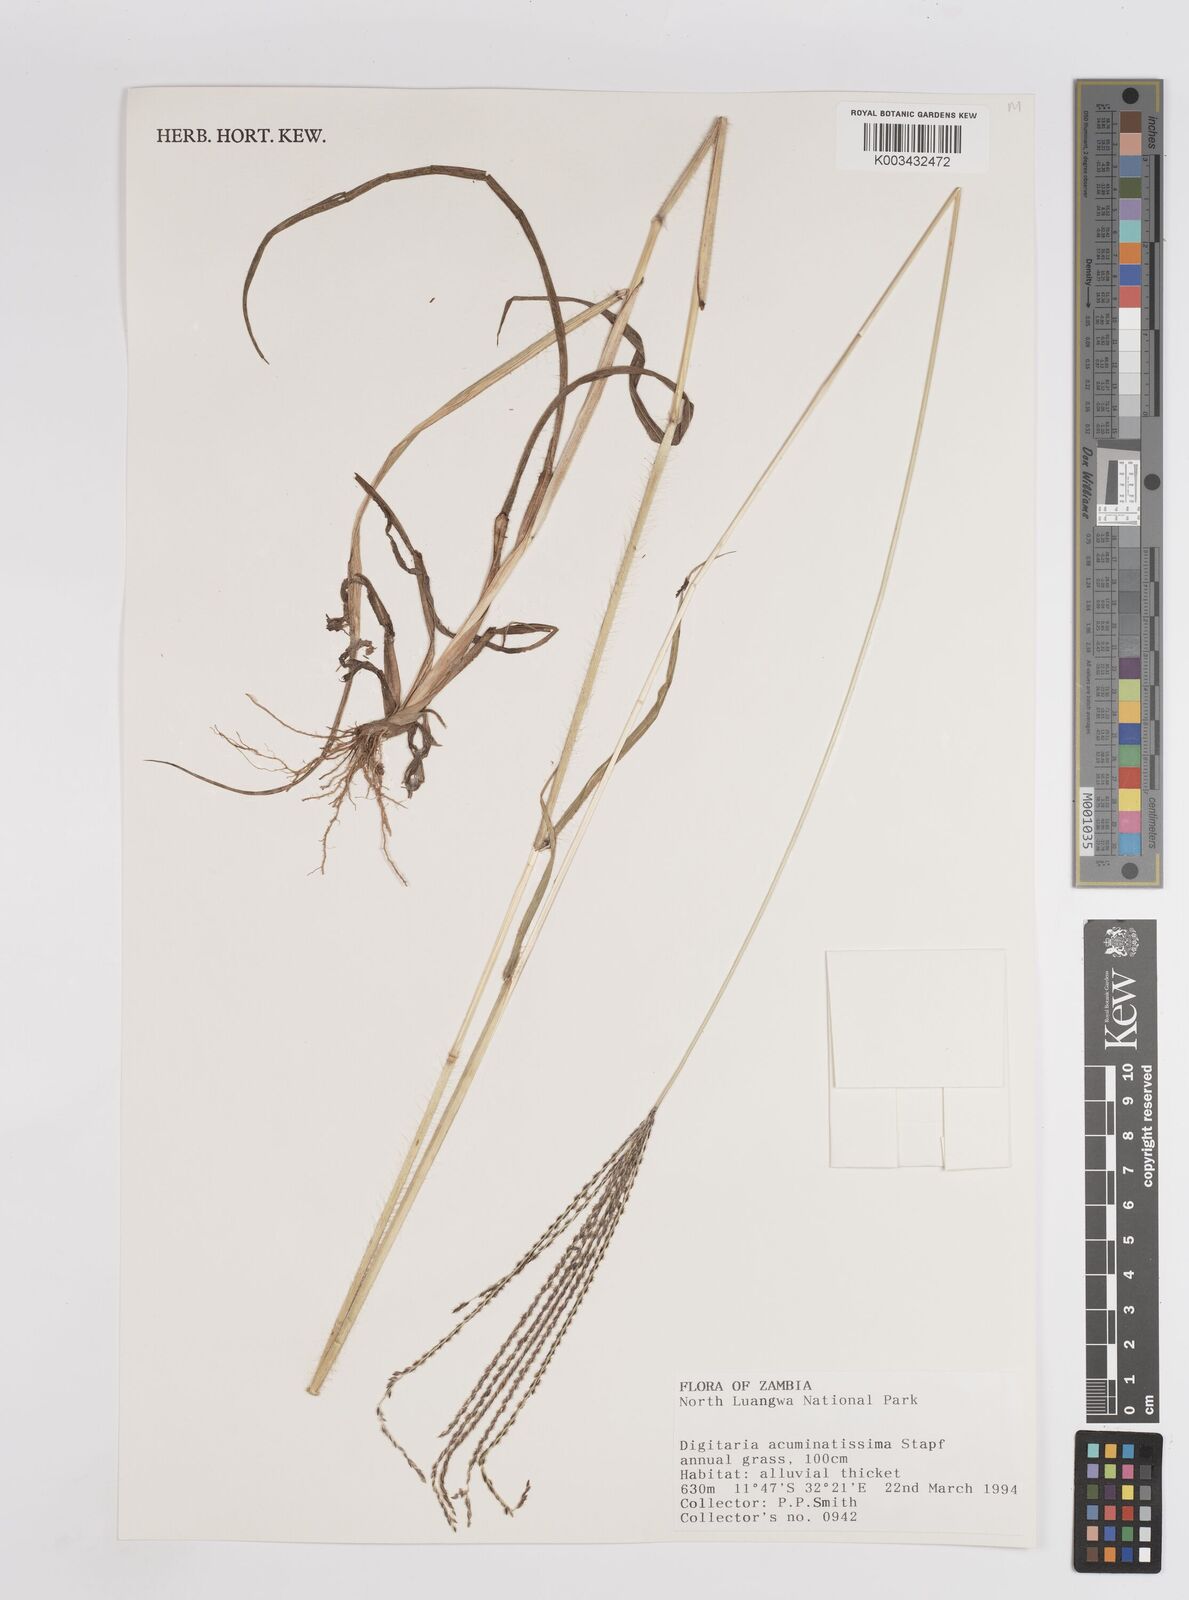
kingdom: Plantae
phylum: Tracheophyta
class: Liliopsida
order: Poales
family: Poaceae
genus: Digitaria
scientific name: Digitaria acuminatissima
